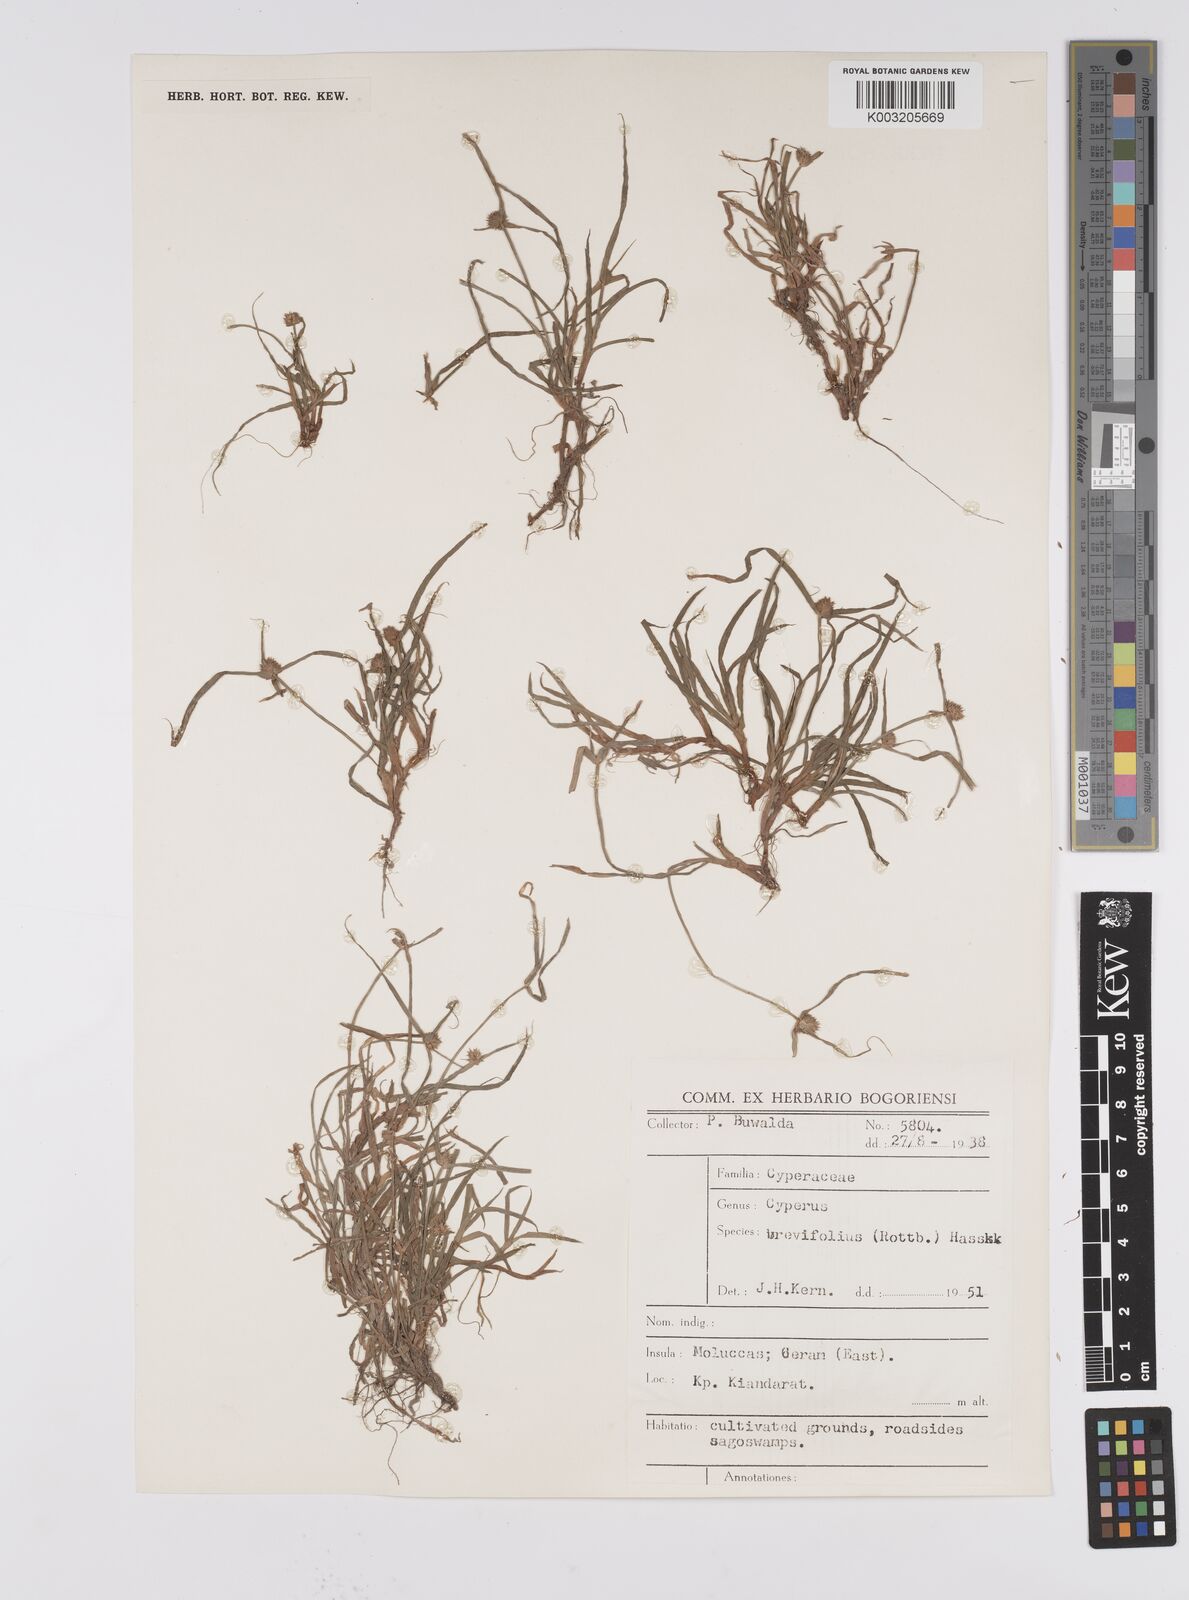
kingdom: Plantae
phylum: Tracheophyta
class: Liliopsida
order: Poales
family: Cyperaceae
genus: Cyperus
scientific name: Cyperus brevifolius
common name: Globe kyllinga
